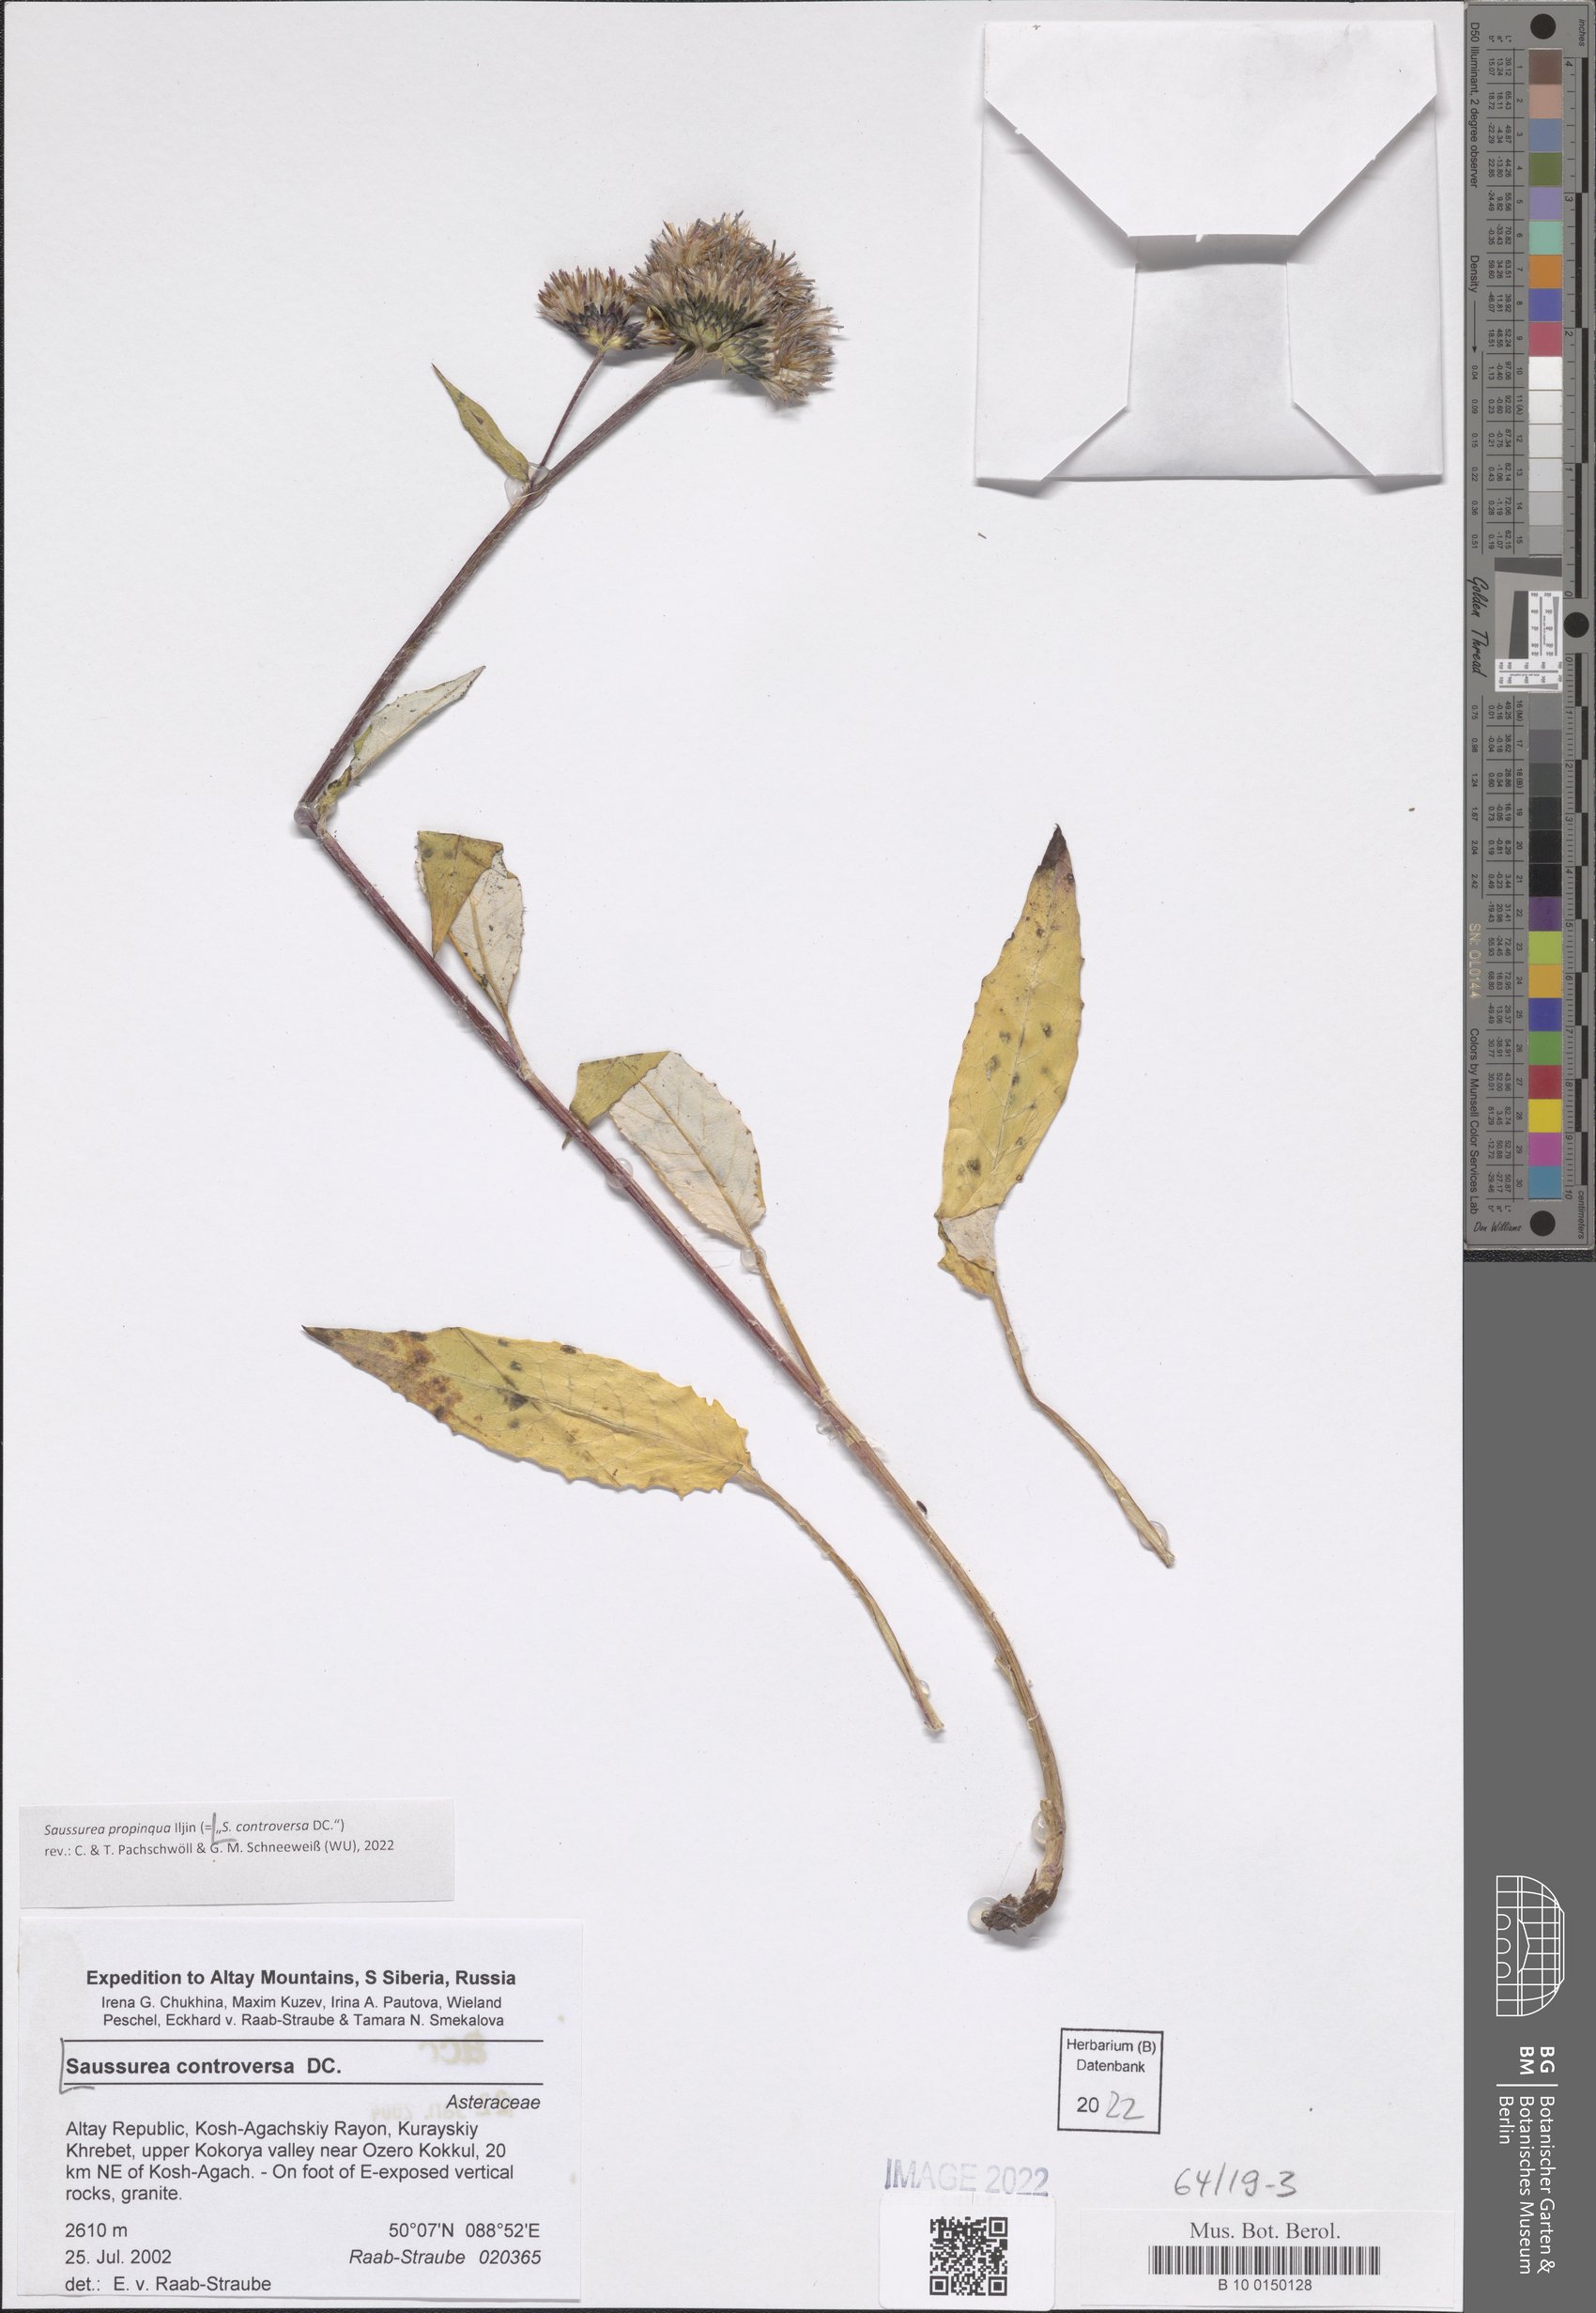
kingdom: Plantae
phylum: Tracheophyta
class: Magnoliopsida
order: Asterales
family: Asteraceae
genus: Saussurea
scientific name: Saussurea controversa
